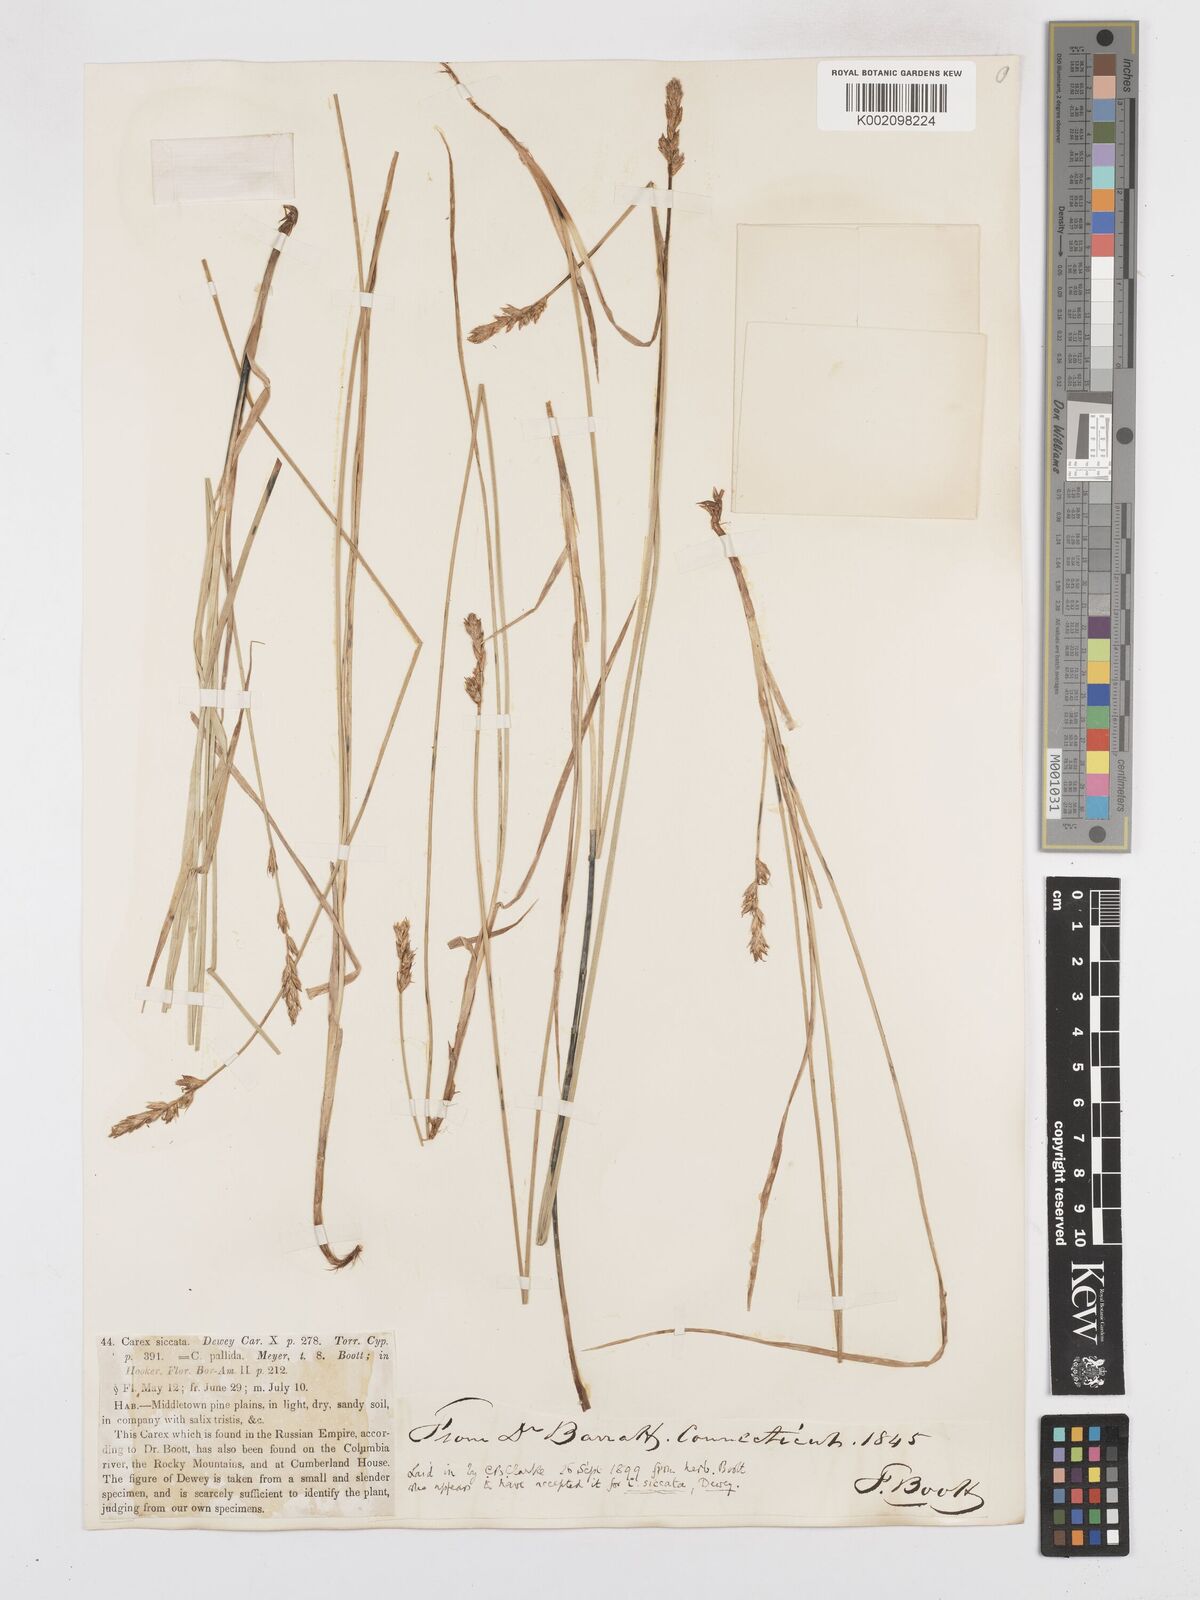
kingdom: Plantae
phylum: Tracheophyta
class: Liliopsida
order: Poales
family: Cyperaceae
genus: Carex
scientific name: Carex foenea
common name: Bronze sedge
